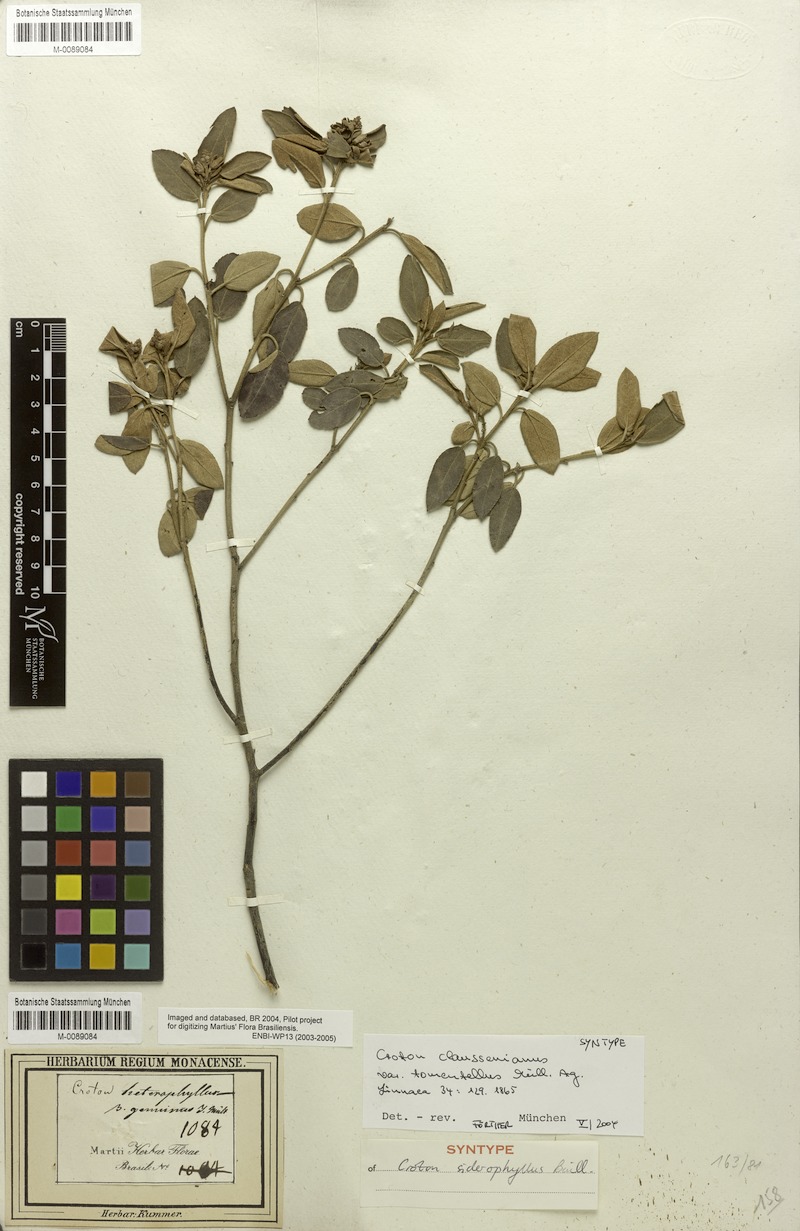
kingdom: Plantae
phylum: Tracheophyta
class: Magnoliopsida
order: Malpighiales
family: Euphorbiaceae
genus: Croton
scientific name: Croton siderophyllus
